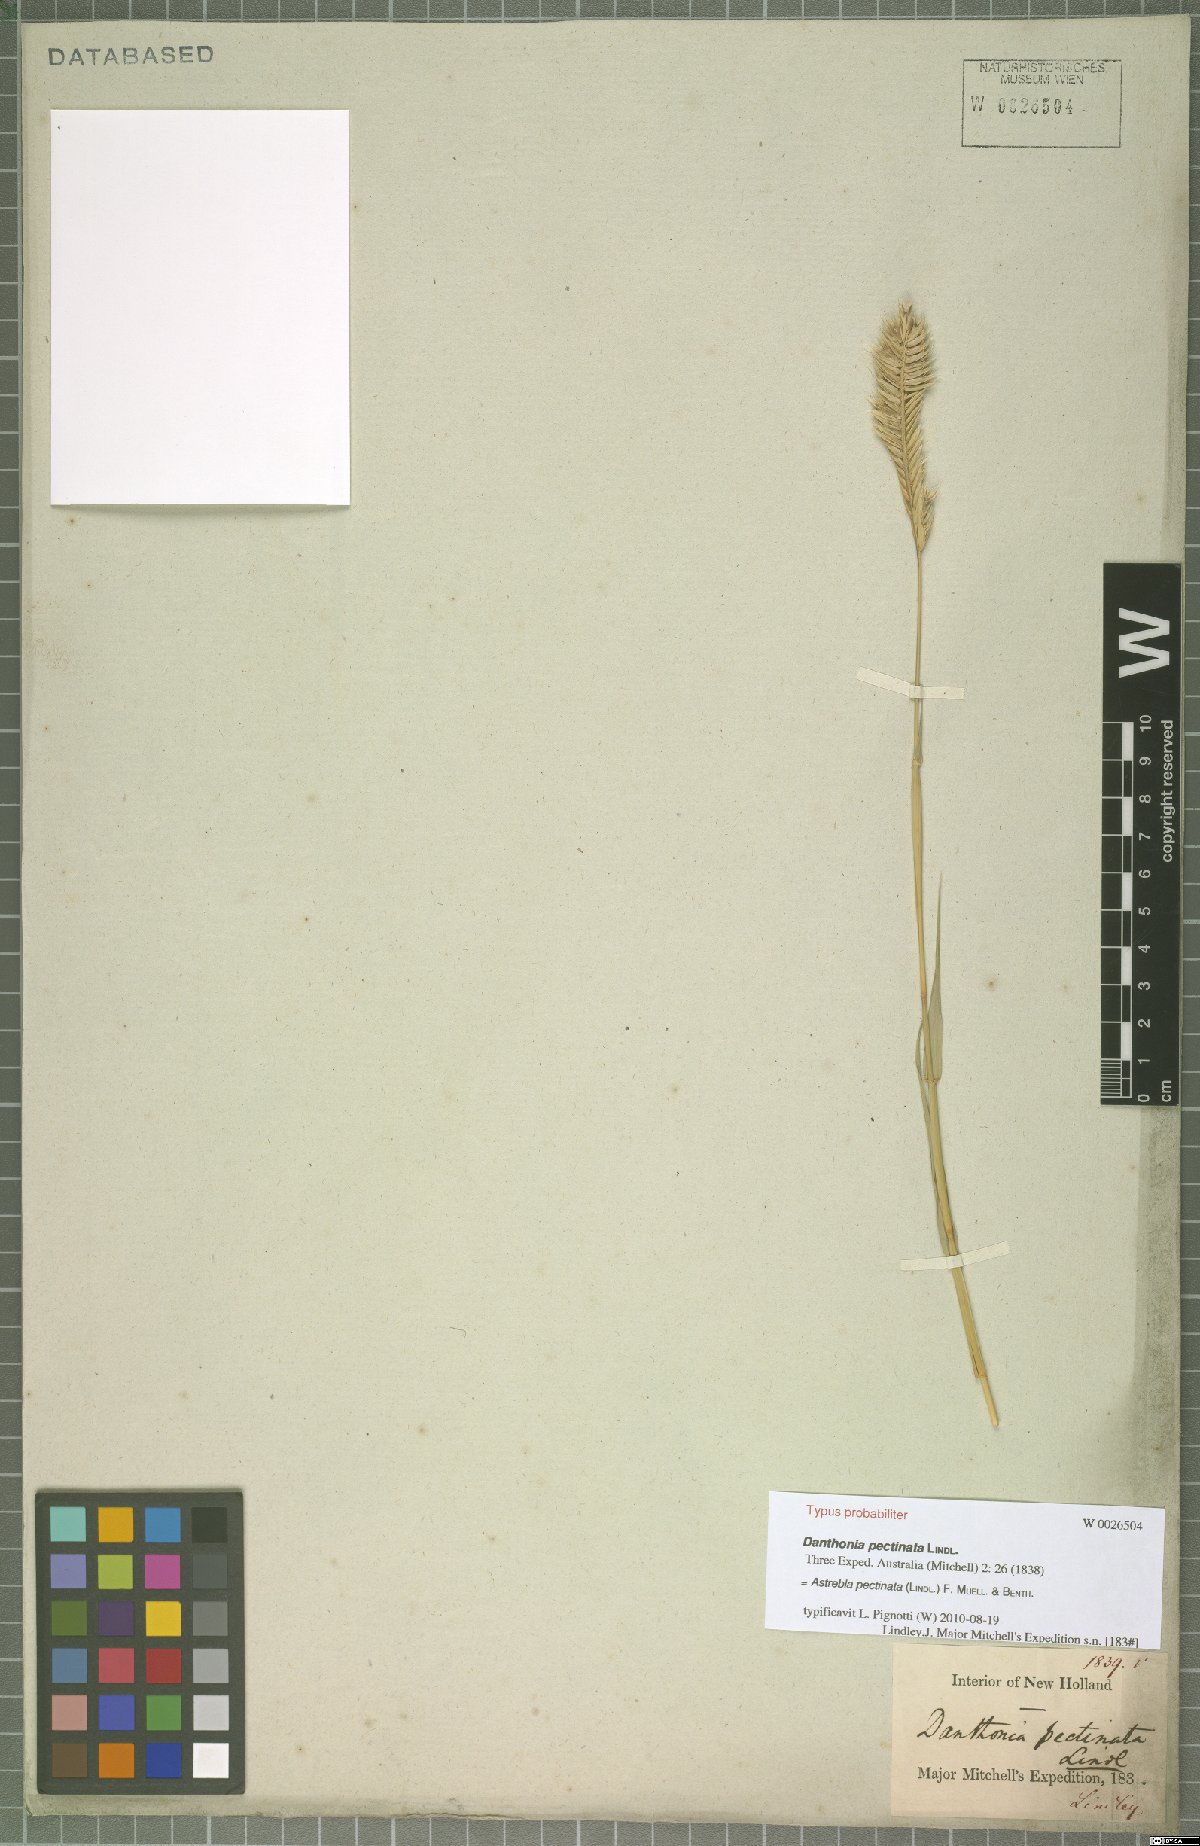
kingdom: Plantae
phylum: Tracheophyta
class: Liliopsida
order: Poales
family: Poaceae
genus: Astrebla
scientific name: Astrebla pectinata
